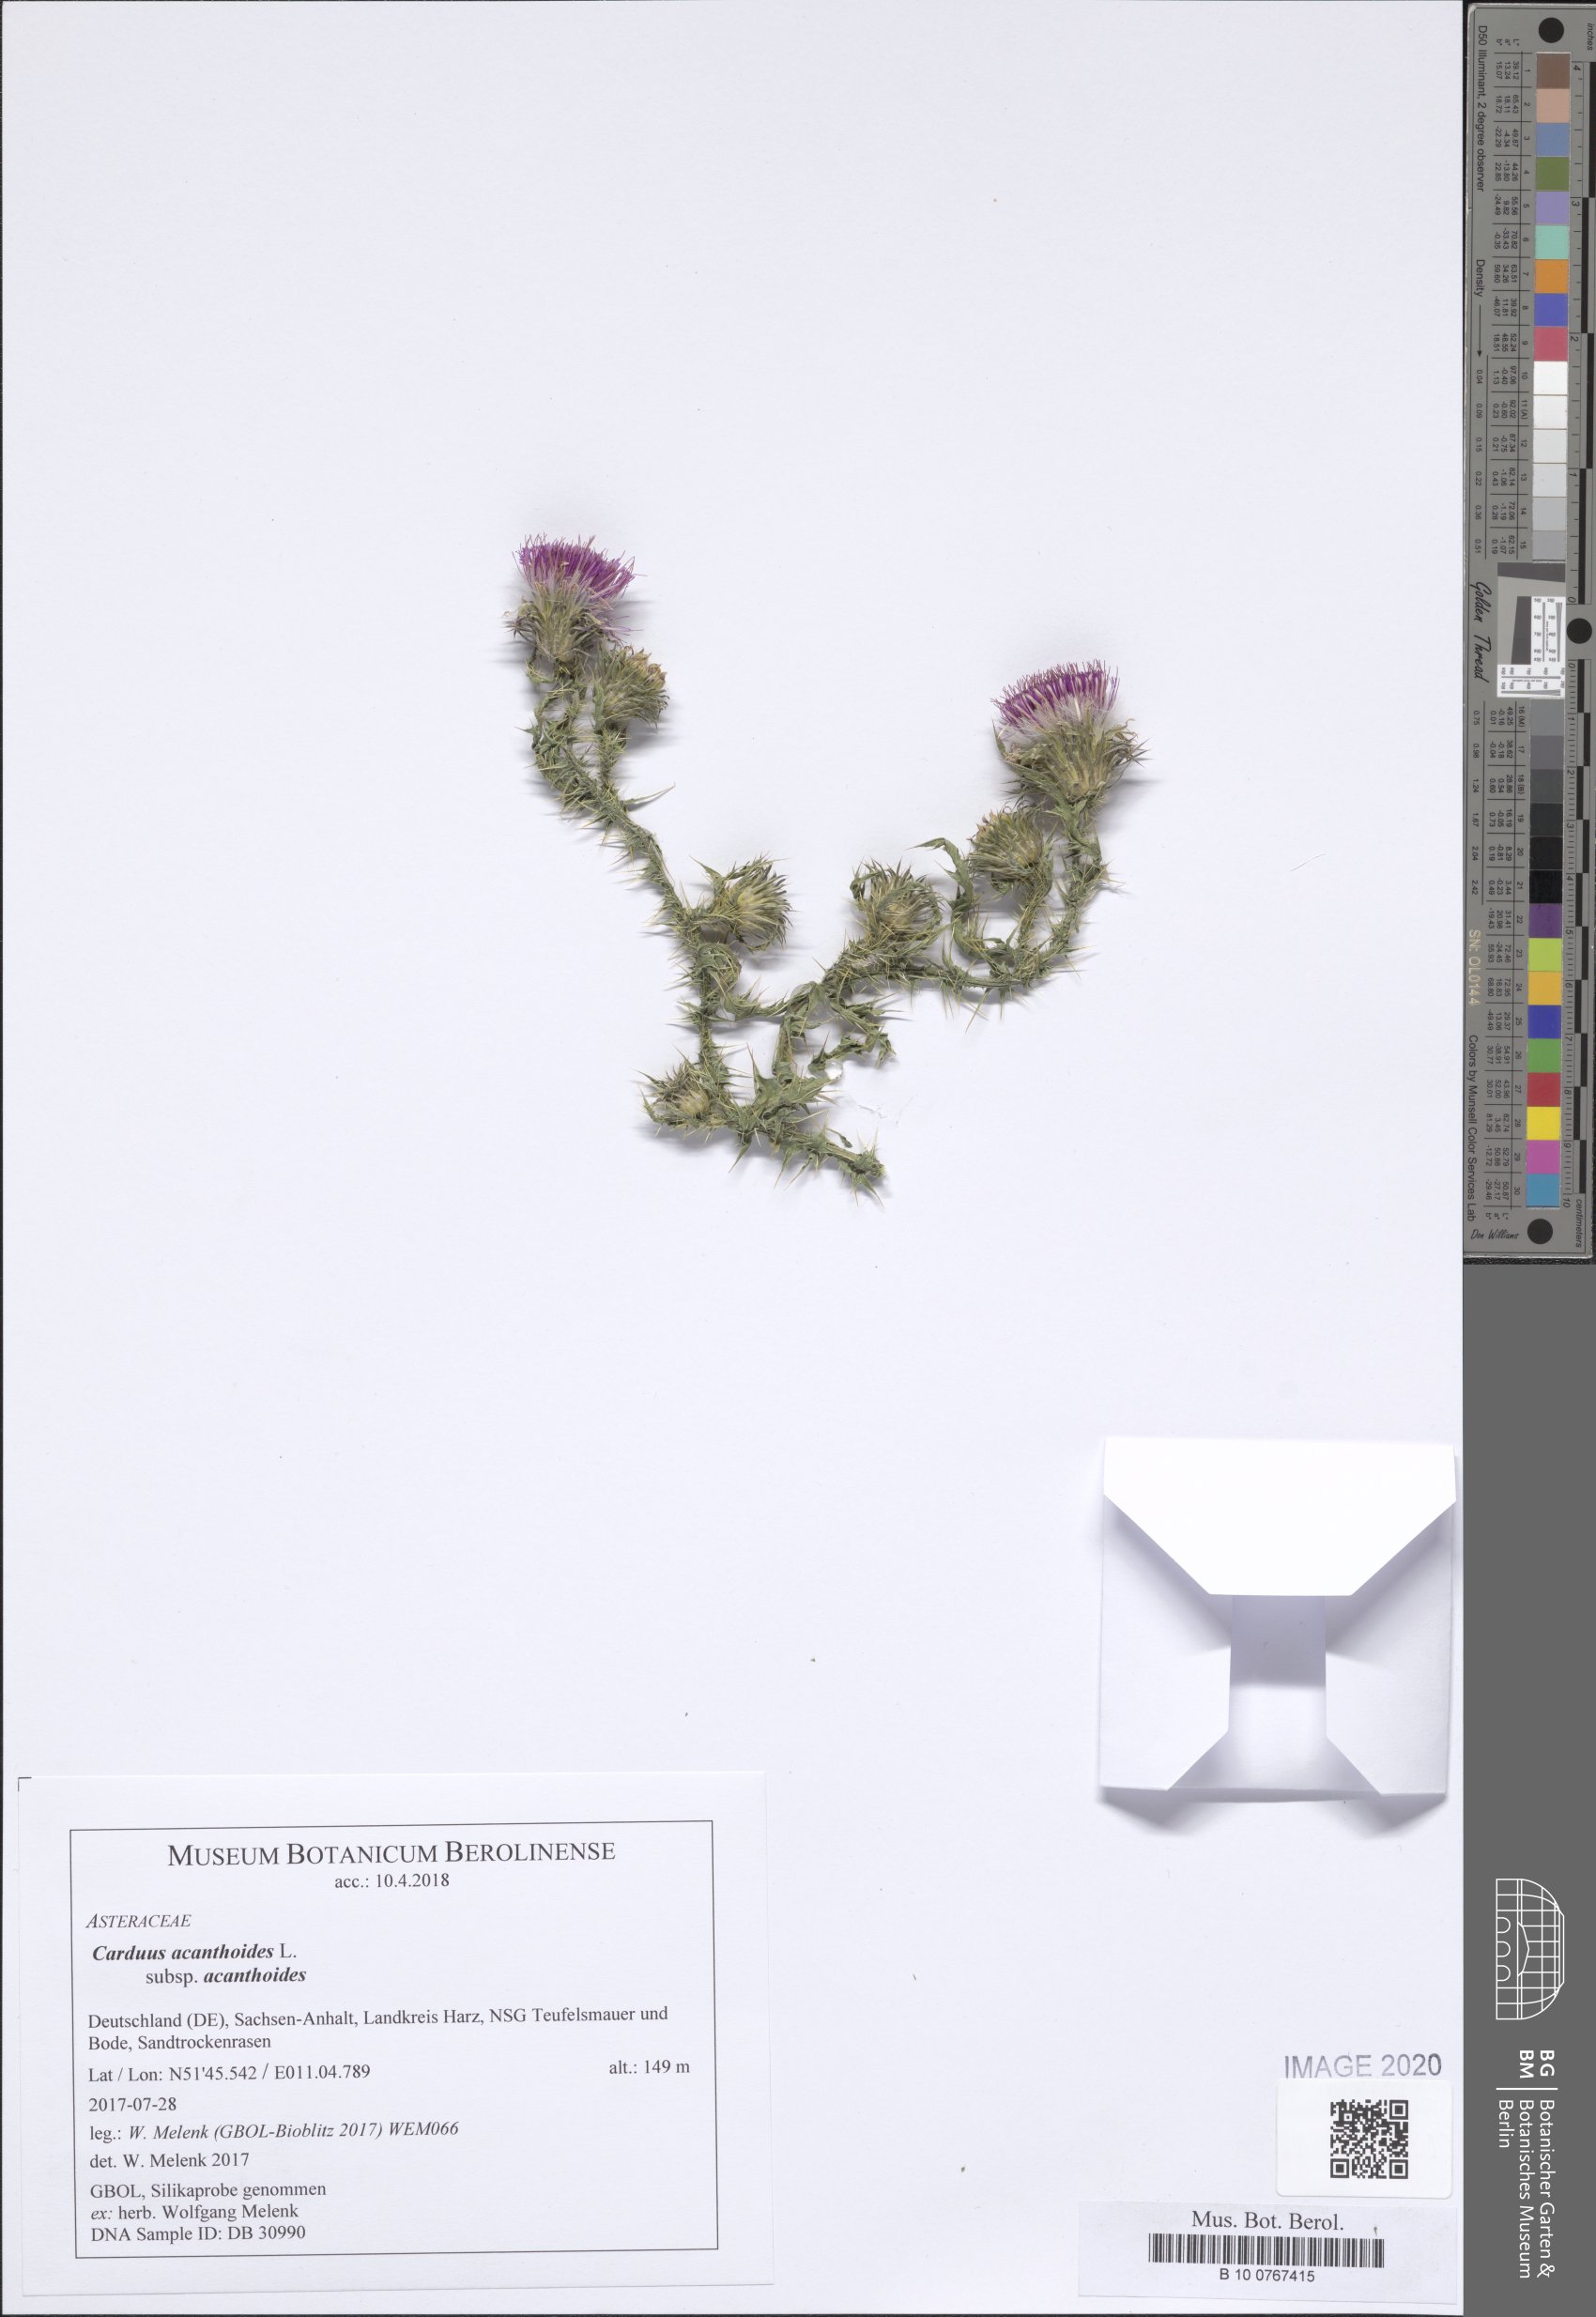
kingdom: Plantae
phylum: Tracheophyta
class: Magnoliopsida
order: Asterales
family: Asteraceae
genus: Carduus
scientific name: Carduus acanthoides
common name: Plumeless thistle
